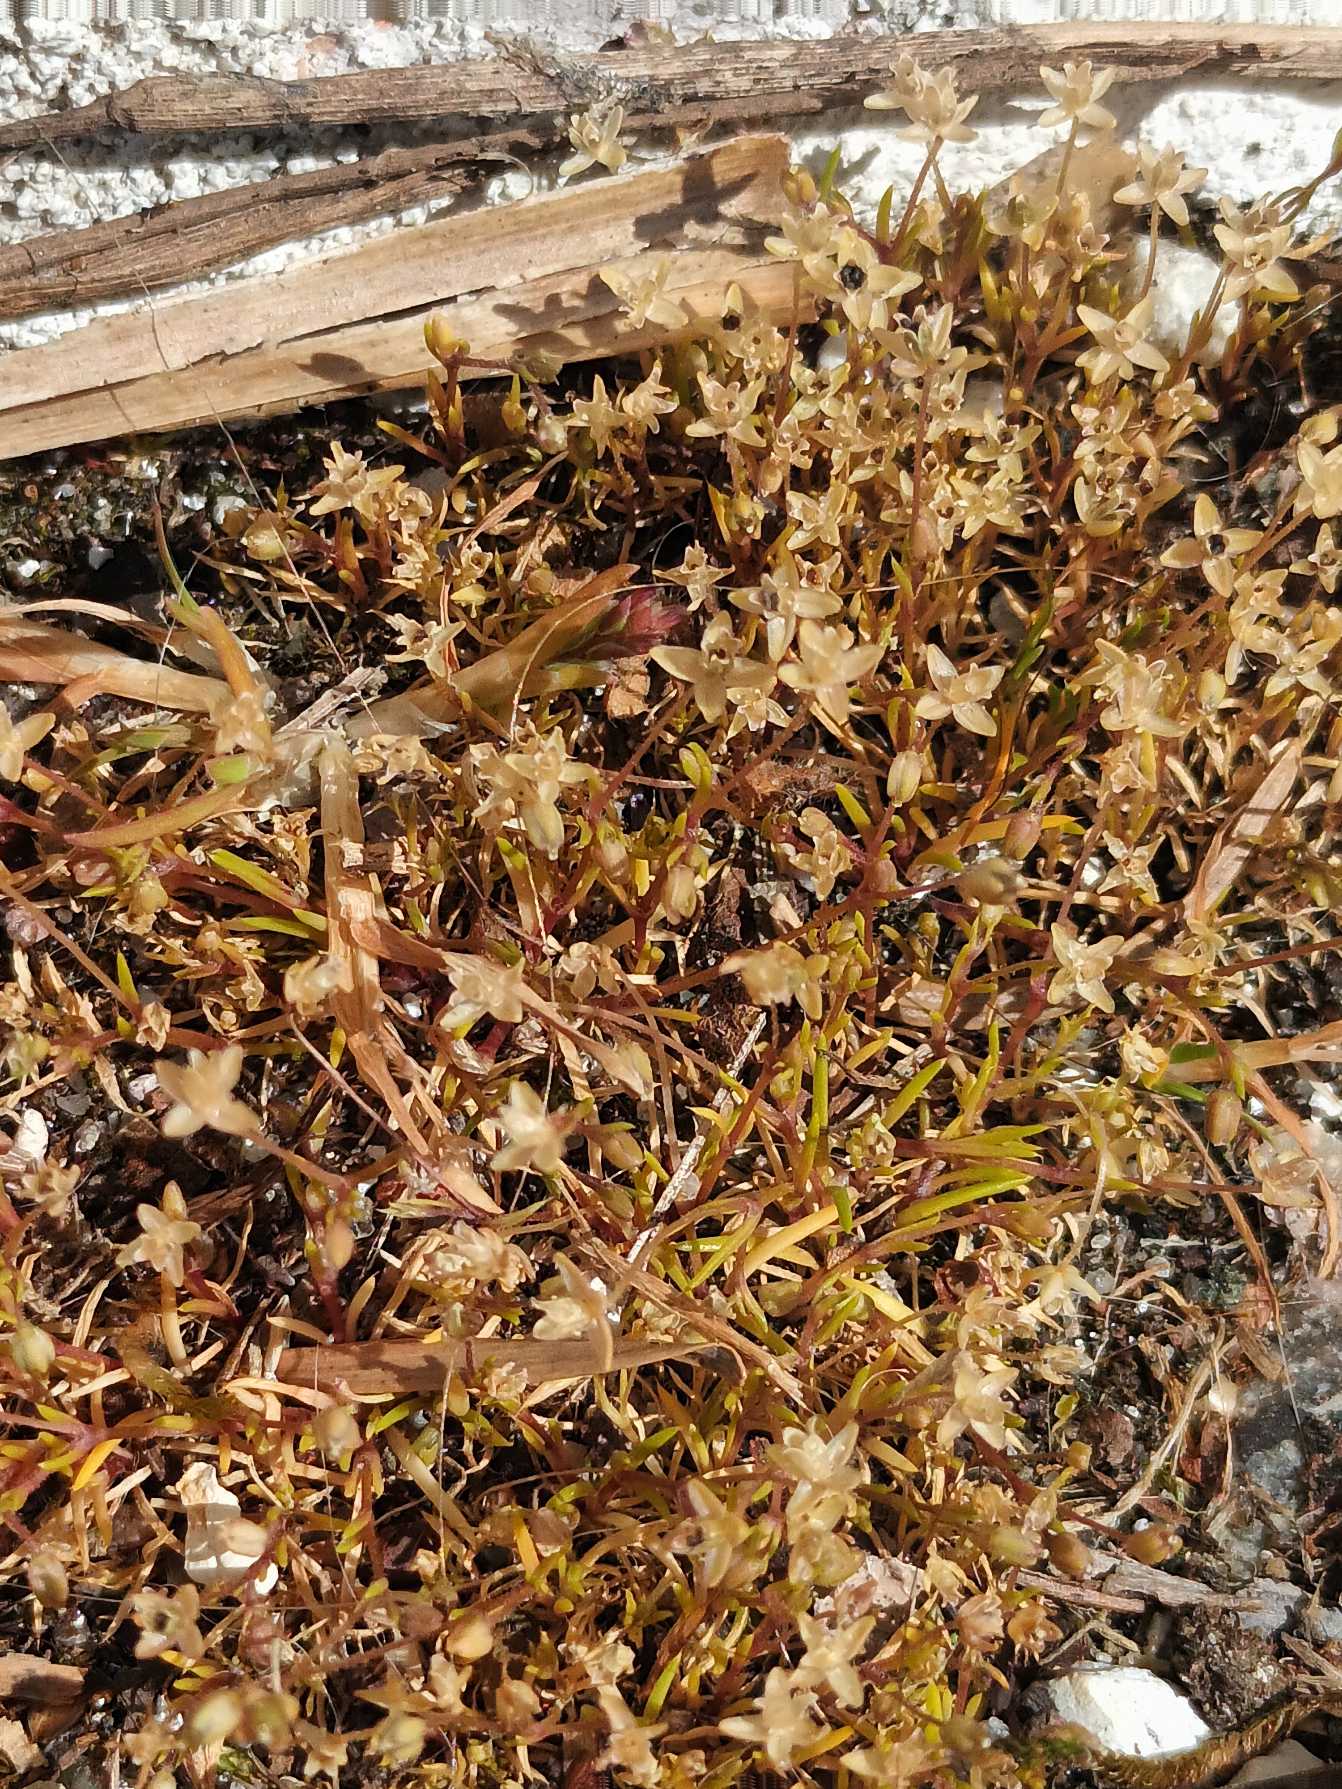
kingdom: Plantae
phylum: Tracheophyta
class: Magnoliopsida
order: Caryophyllales
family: Caryophyllaceae
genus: Sagina
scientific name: Sagina micropetala
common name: Håret firling
